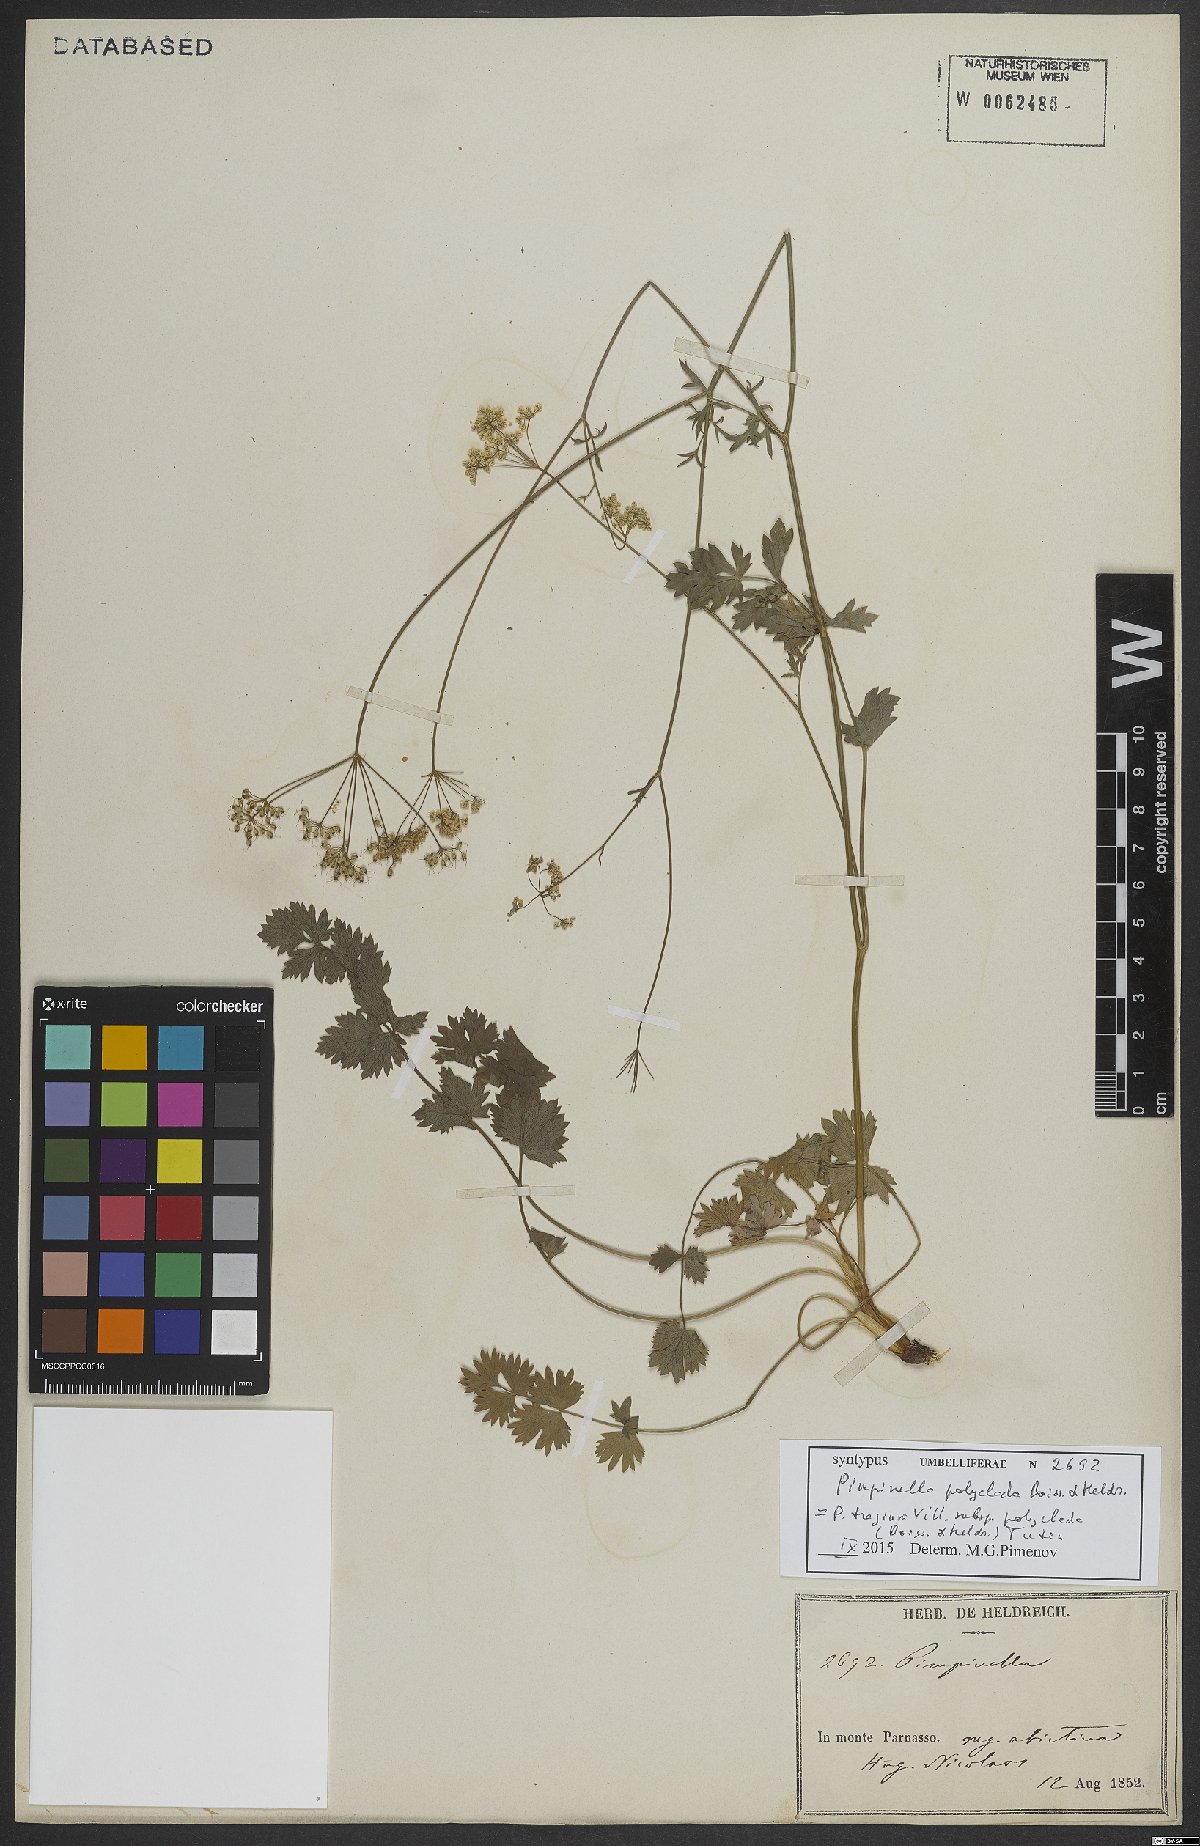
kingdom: Plantae
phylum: Tracheophyta
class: Magnoliopsida
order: Apiales
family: Apiaceae
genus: Pimpinella
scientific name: Pimpinella tragium
